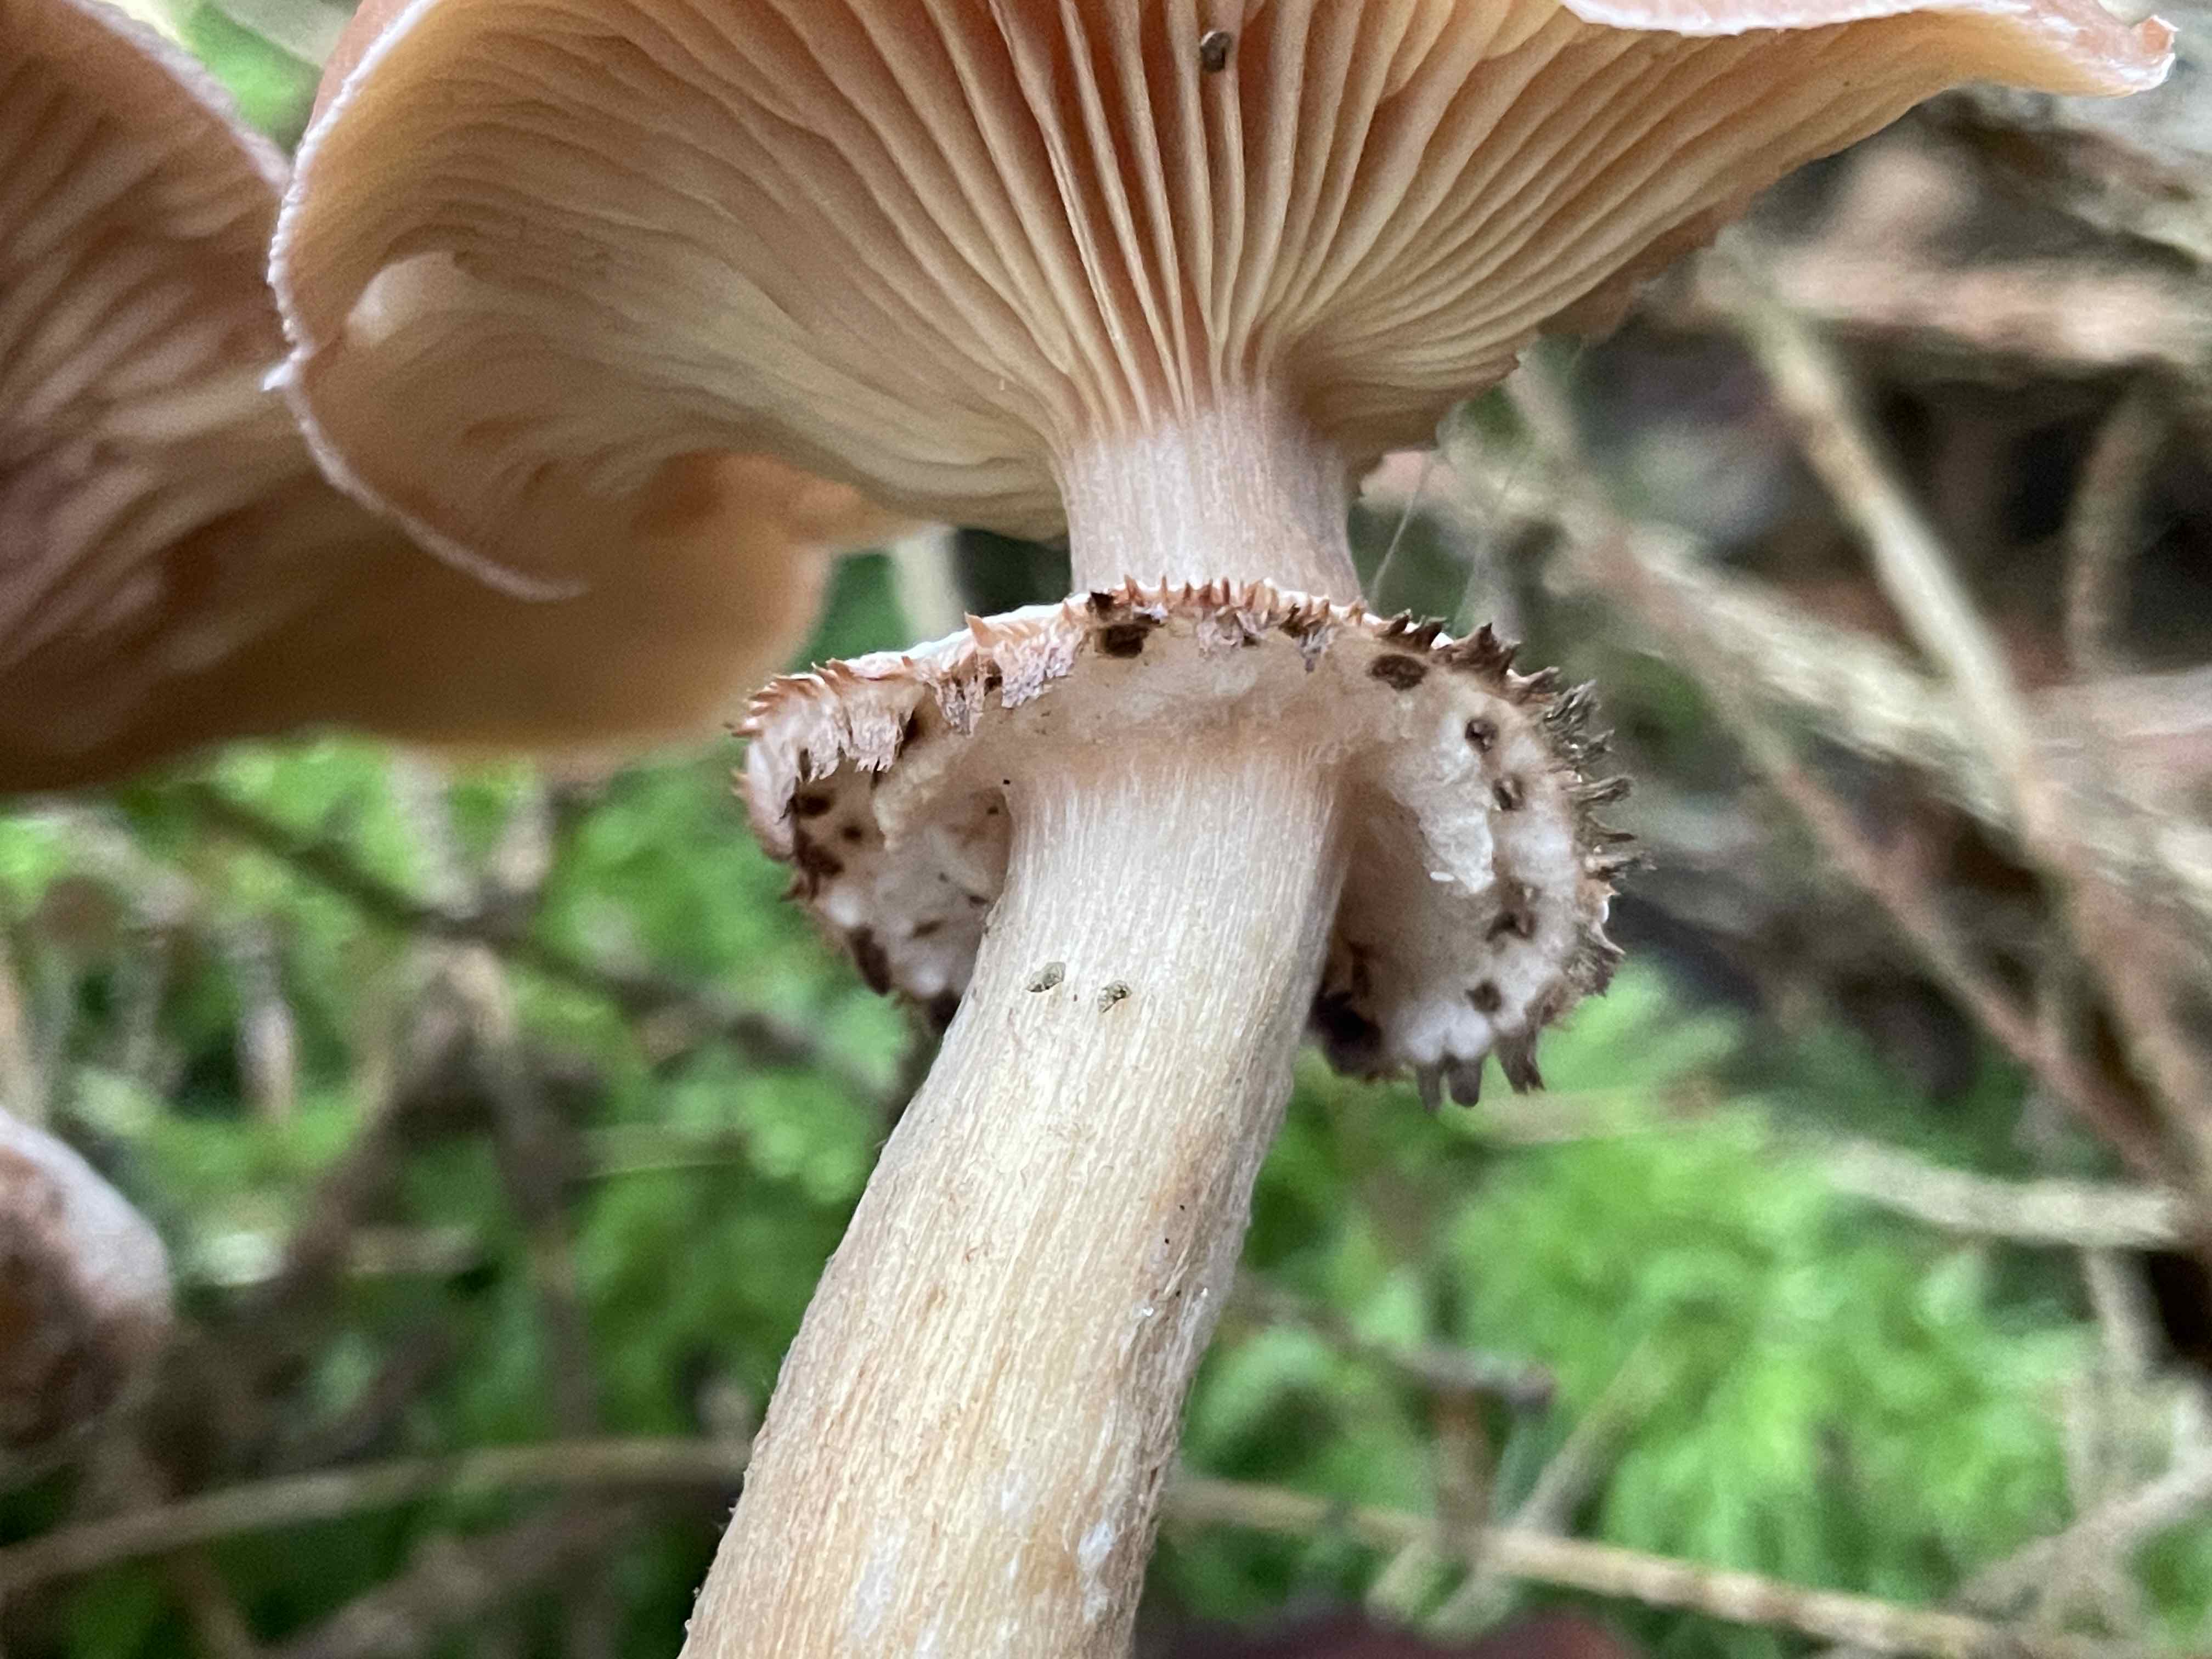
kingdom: Fungi
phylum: Basidiomycota
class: Agaricomycetes
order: Agaricales
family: Physalacriaceae
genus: Armillaria
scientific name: Armillaria ostoyae
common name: mørk honningsvamp
